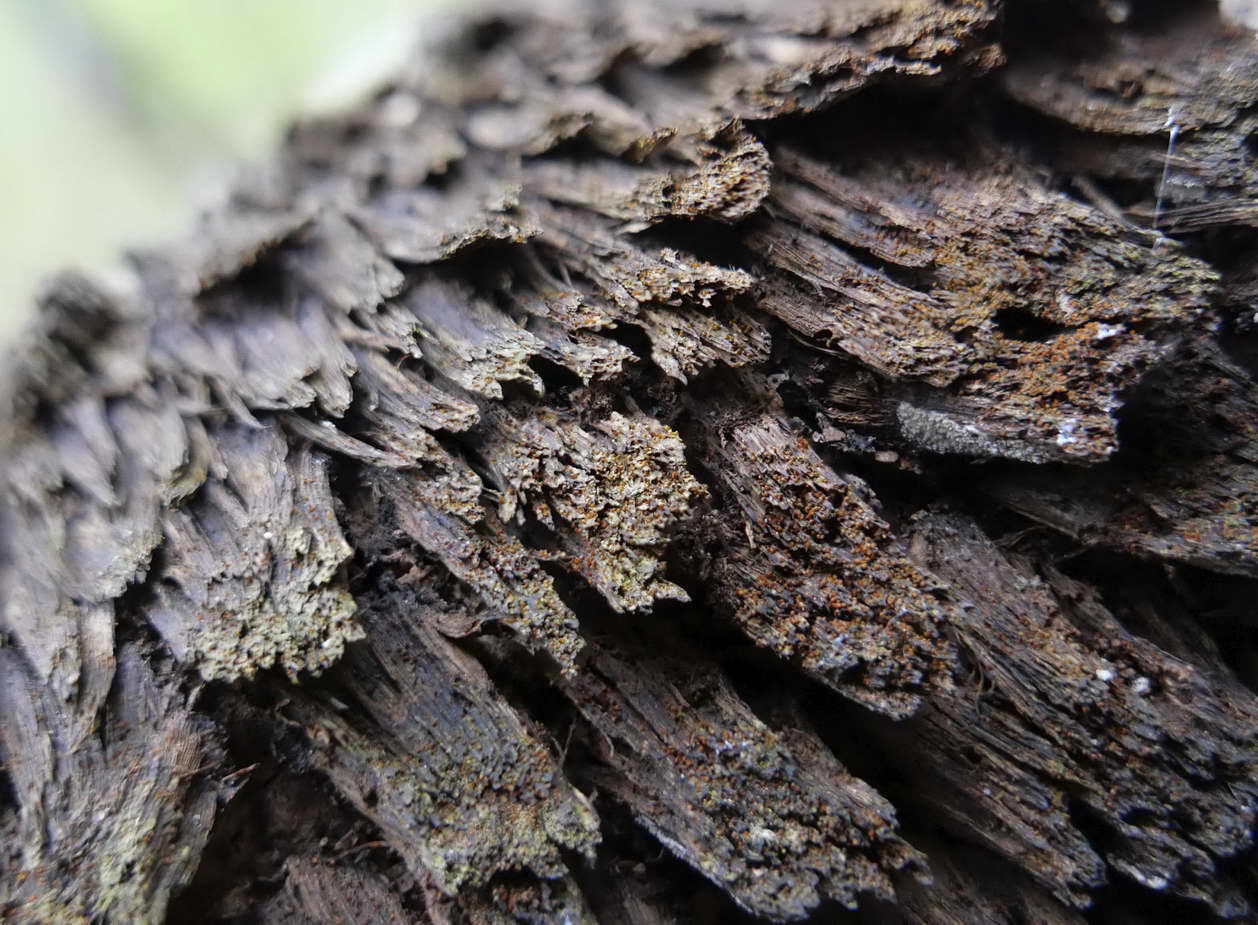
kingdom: Fungi
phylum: Ascomycota
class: Sordariomycetes
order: Hypocreales
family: Nectriaceae
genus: Cosmospora
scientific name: Cosmospora coccinea
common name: spejlpore-cinnobersvamp
